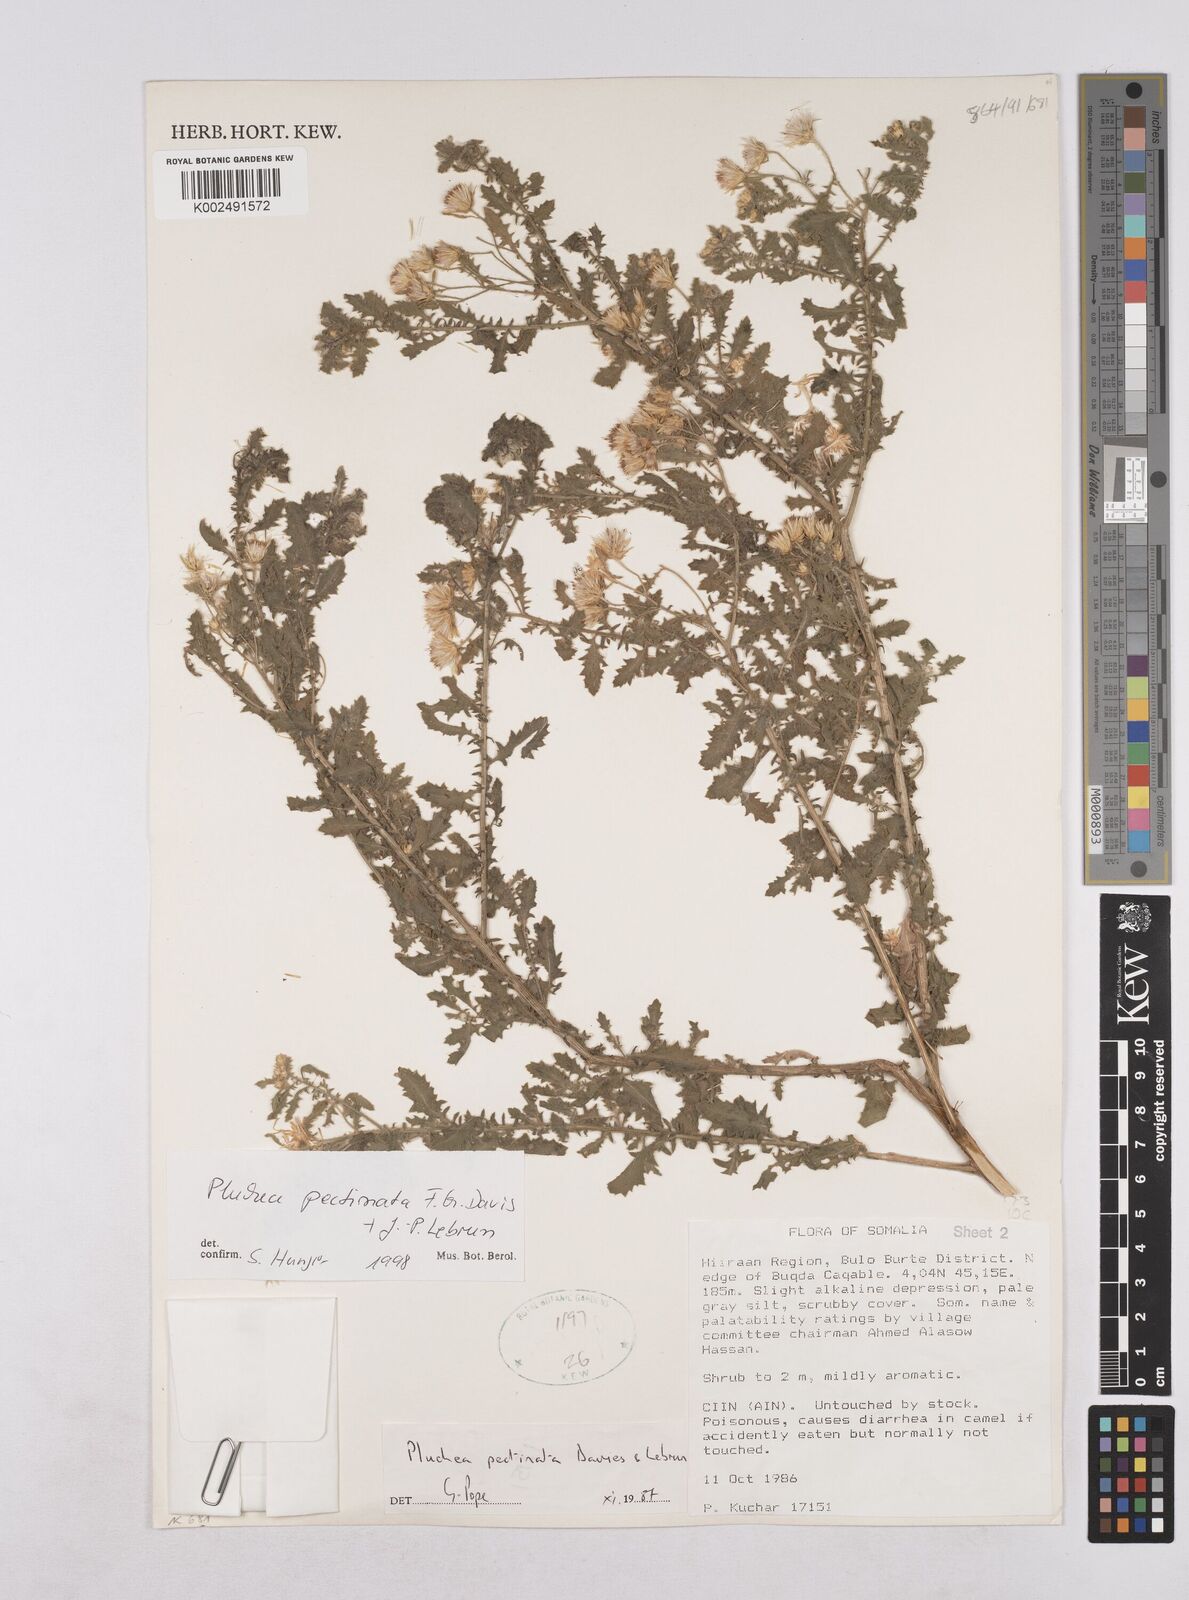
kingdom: Plantae
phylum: Tracheophyta
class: Magnoliopsida
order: Asterales
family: Asteraceae
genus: Pluchea
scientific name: Pluchea somaliensis
